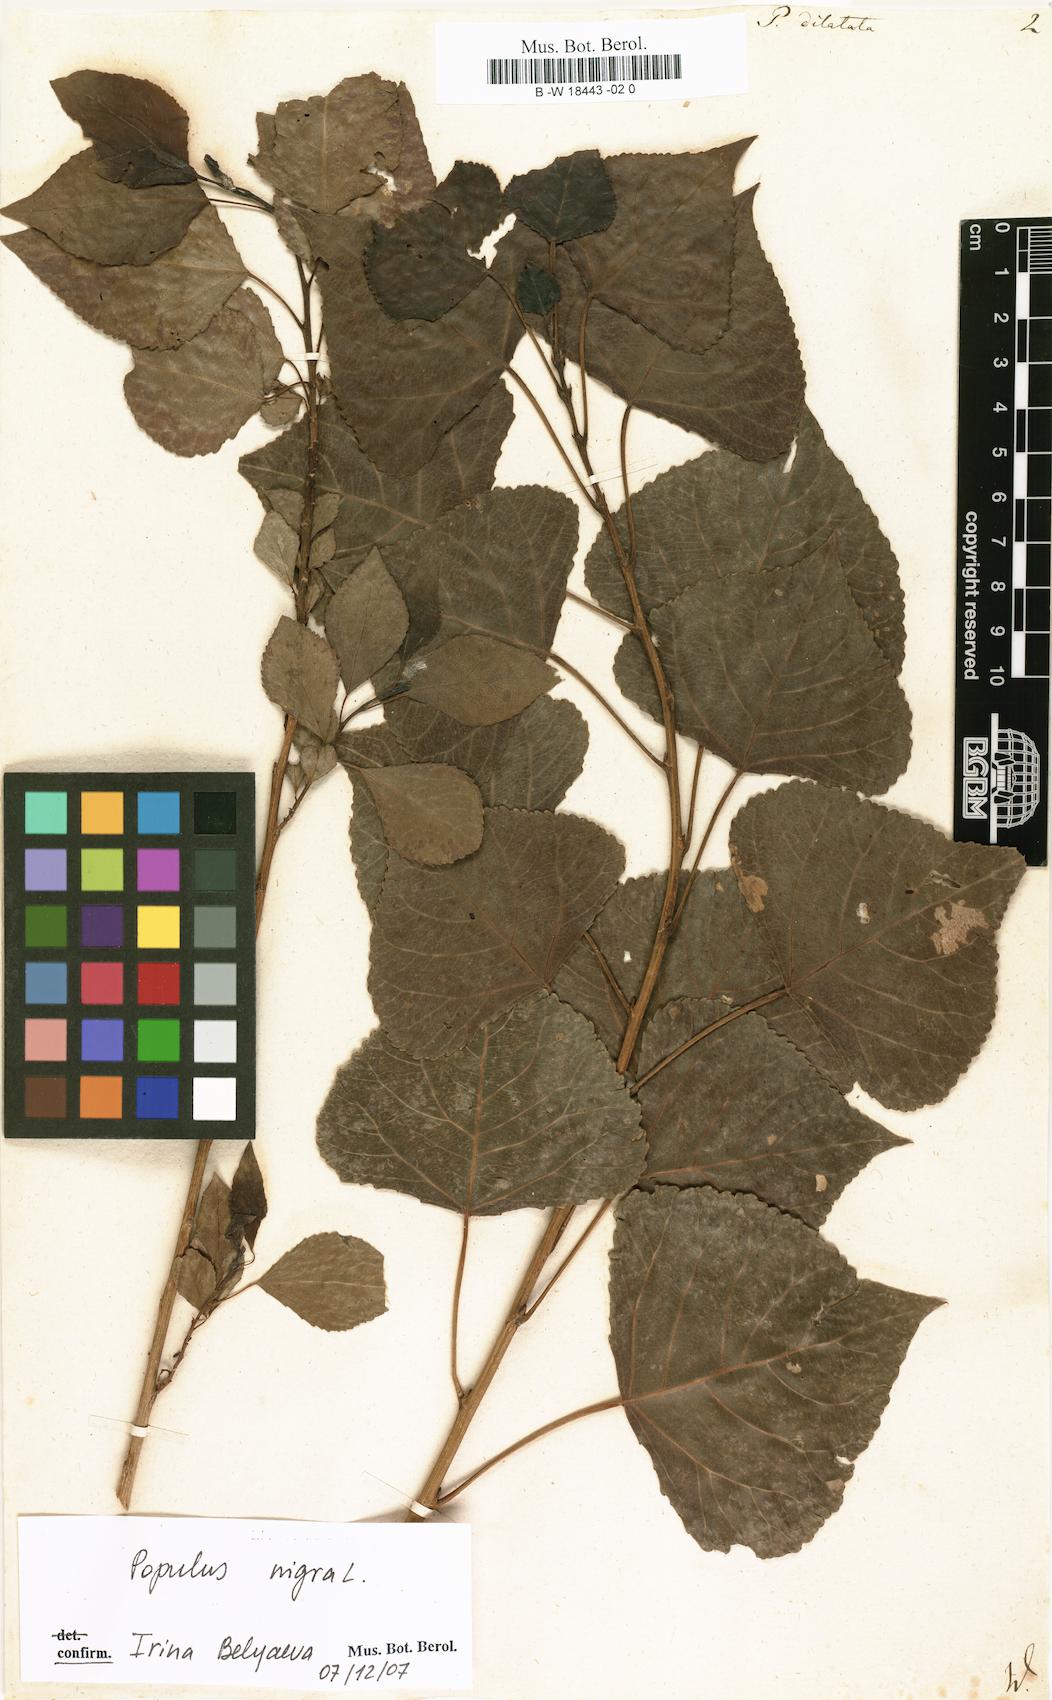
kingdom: Plantae
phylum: Tracheophyta
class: Magnoliopsida
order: Malpighiales
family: Salicaceae
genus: Populus
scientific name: Populus nigra
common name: Black poplar
